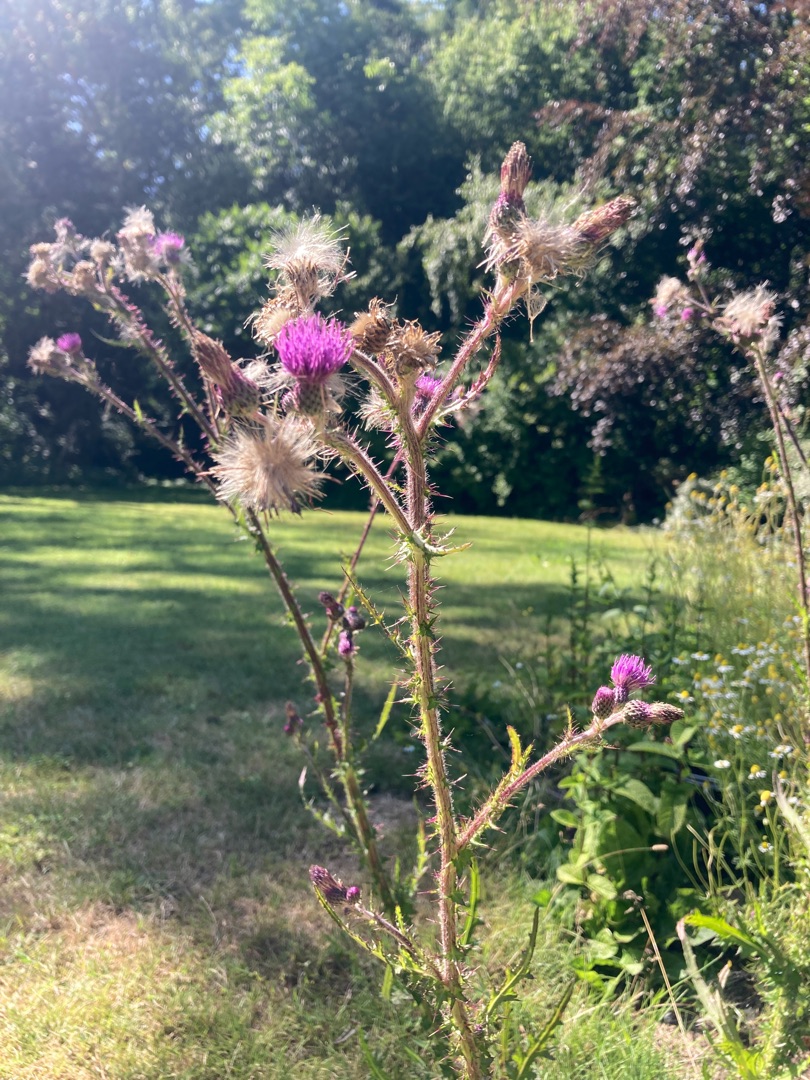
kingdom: Plantae
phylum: Tracheophyta
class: Magnoliopsida
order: Asterales
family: Asteraceae
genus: Cirsium
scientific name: Cirsium palustre
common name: Kær-tidsel
